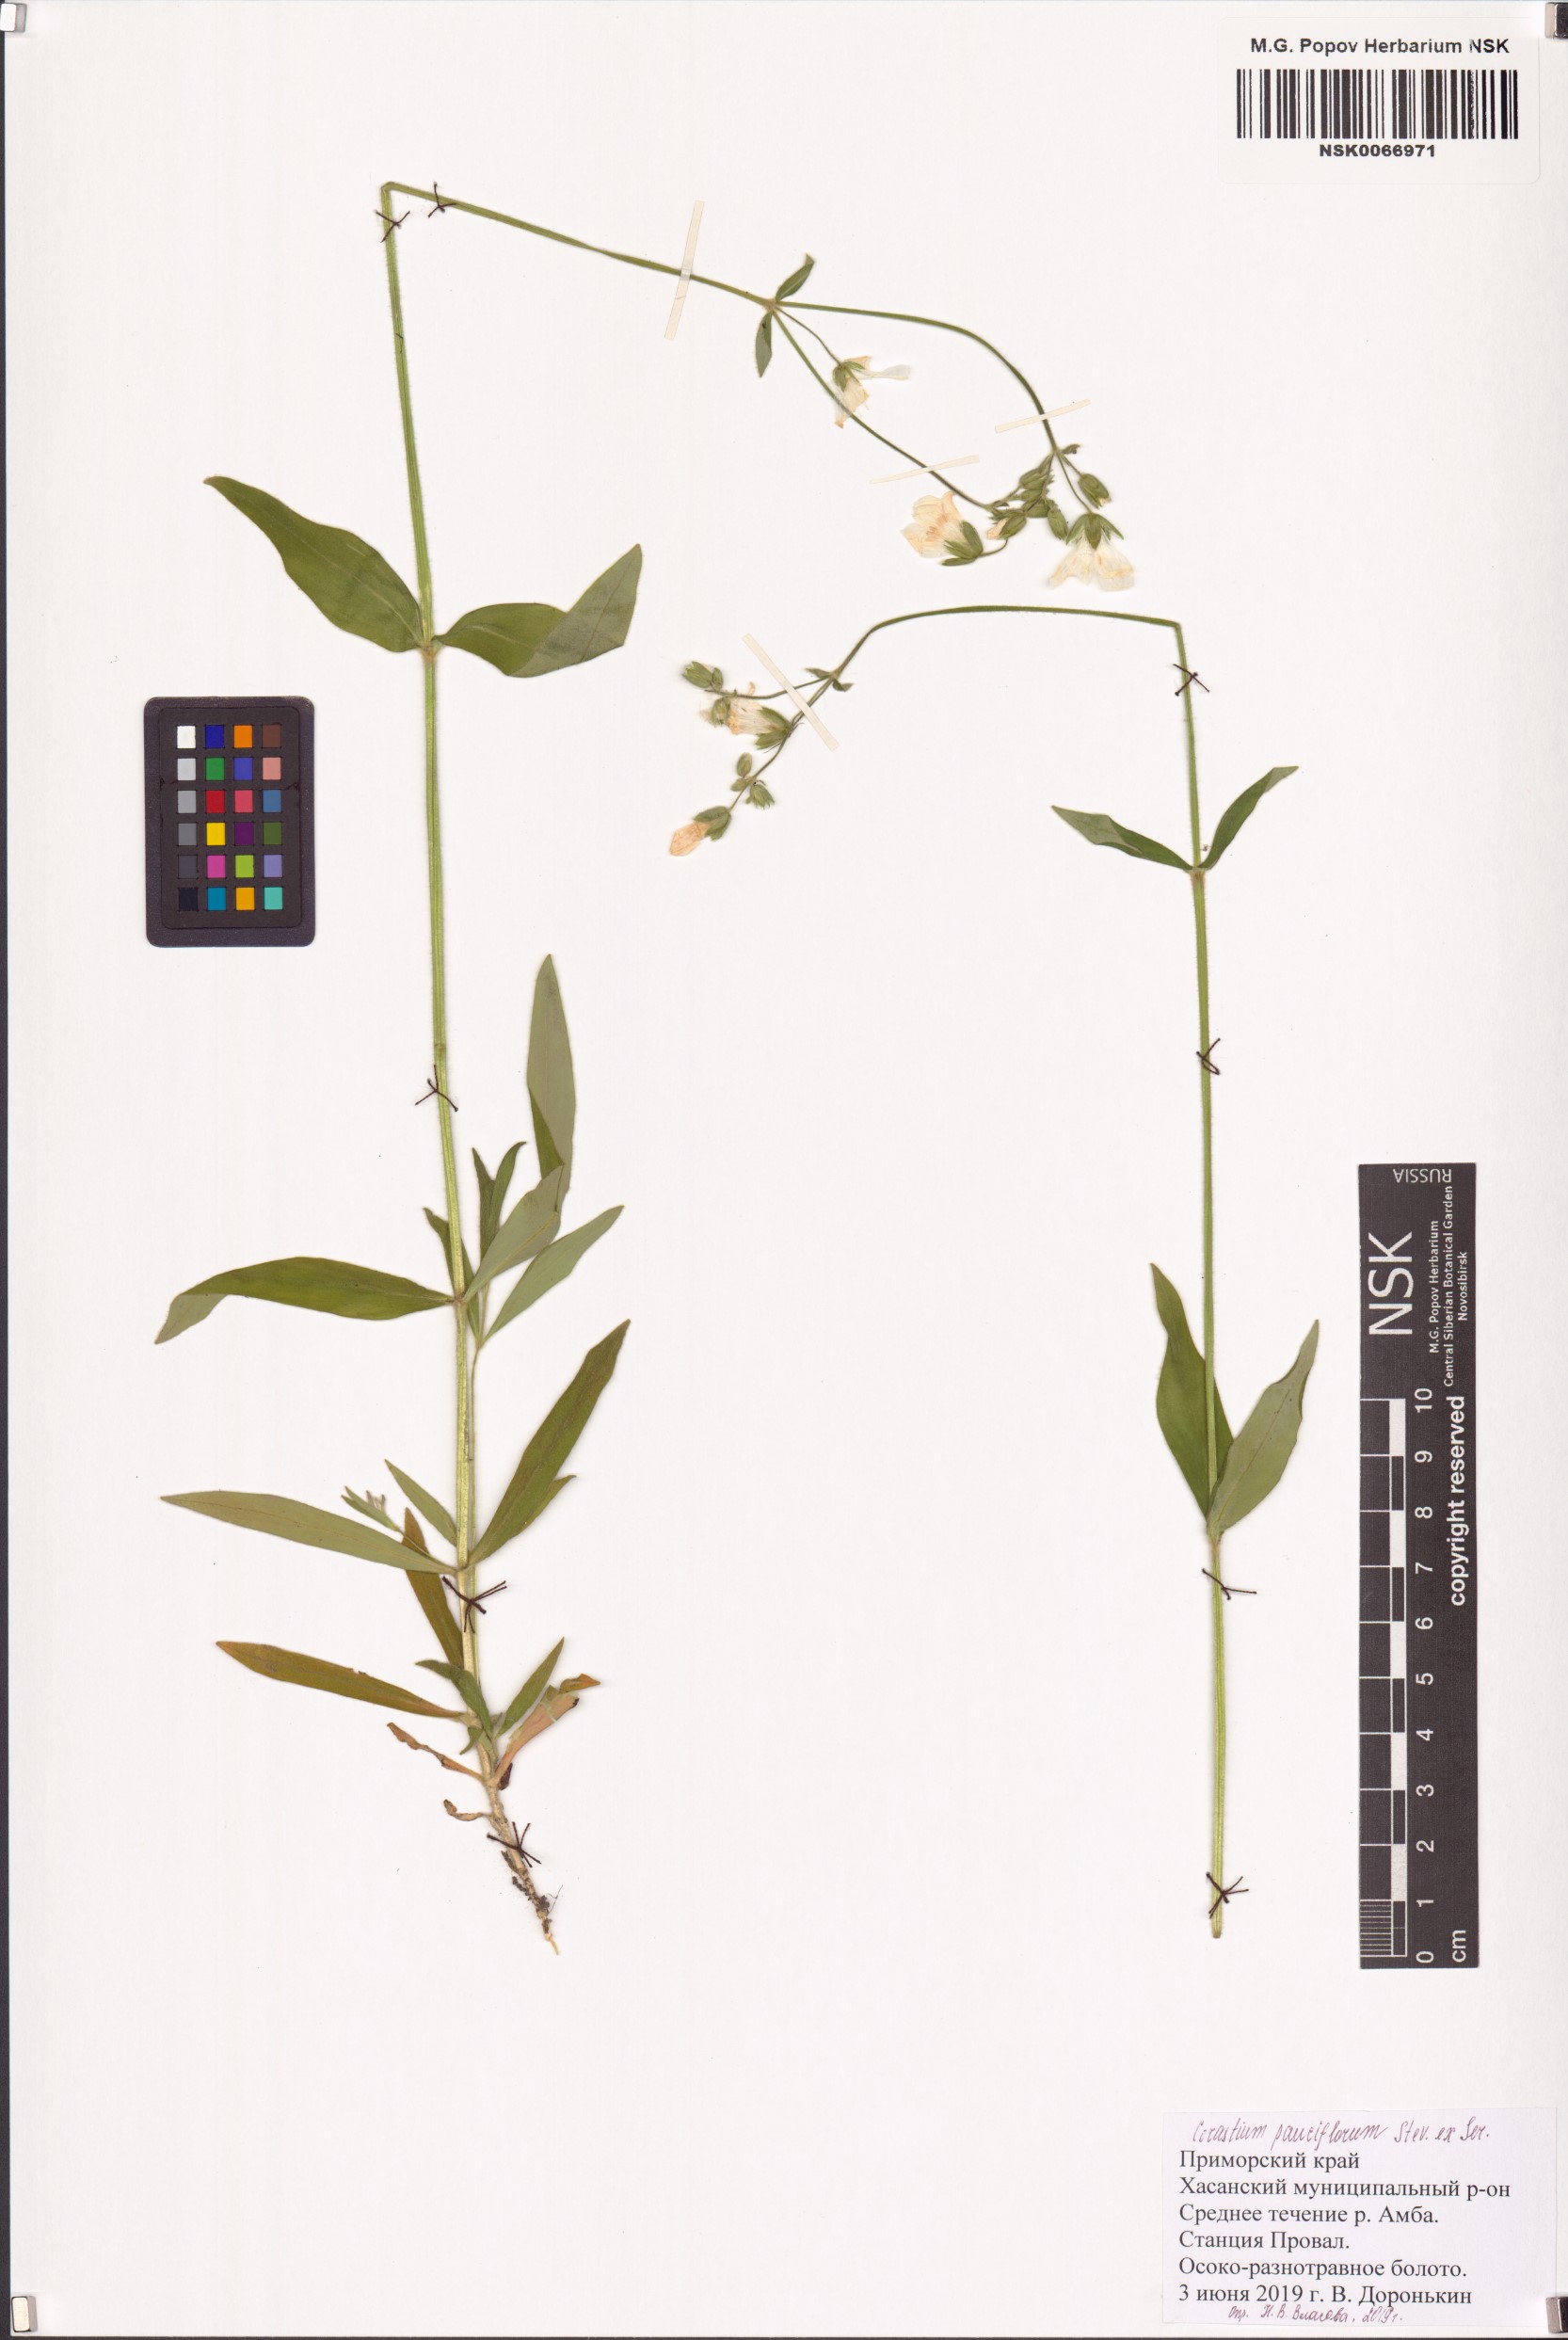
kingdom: Plantae
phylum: Tracheophyta
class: Magnoliopsida
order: Caryophyllales
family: Caryophyllaceae
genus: Cerastium
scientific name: Cerastium pauciflorum
